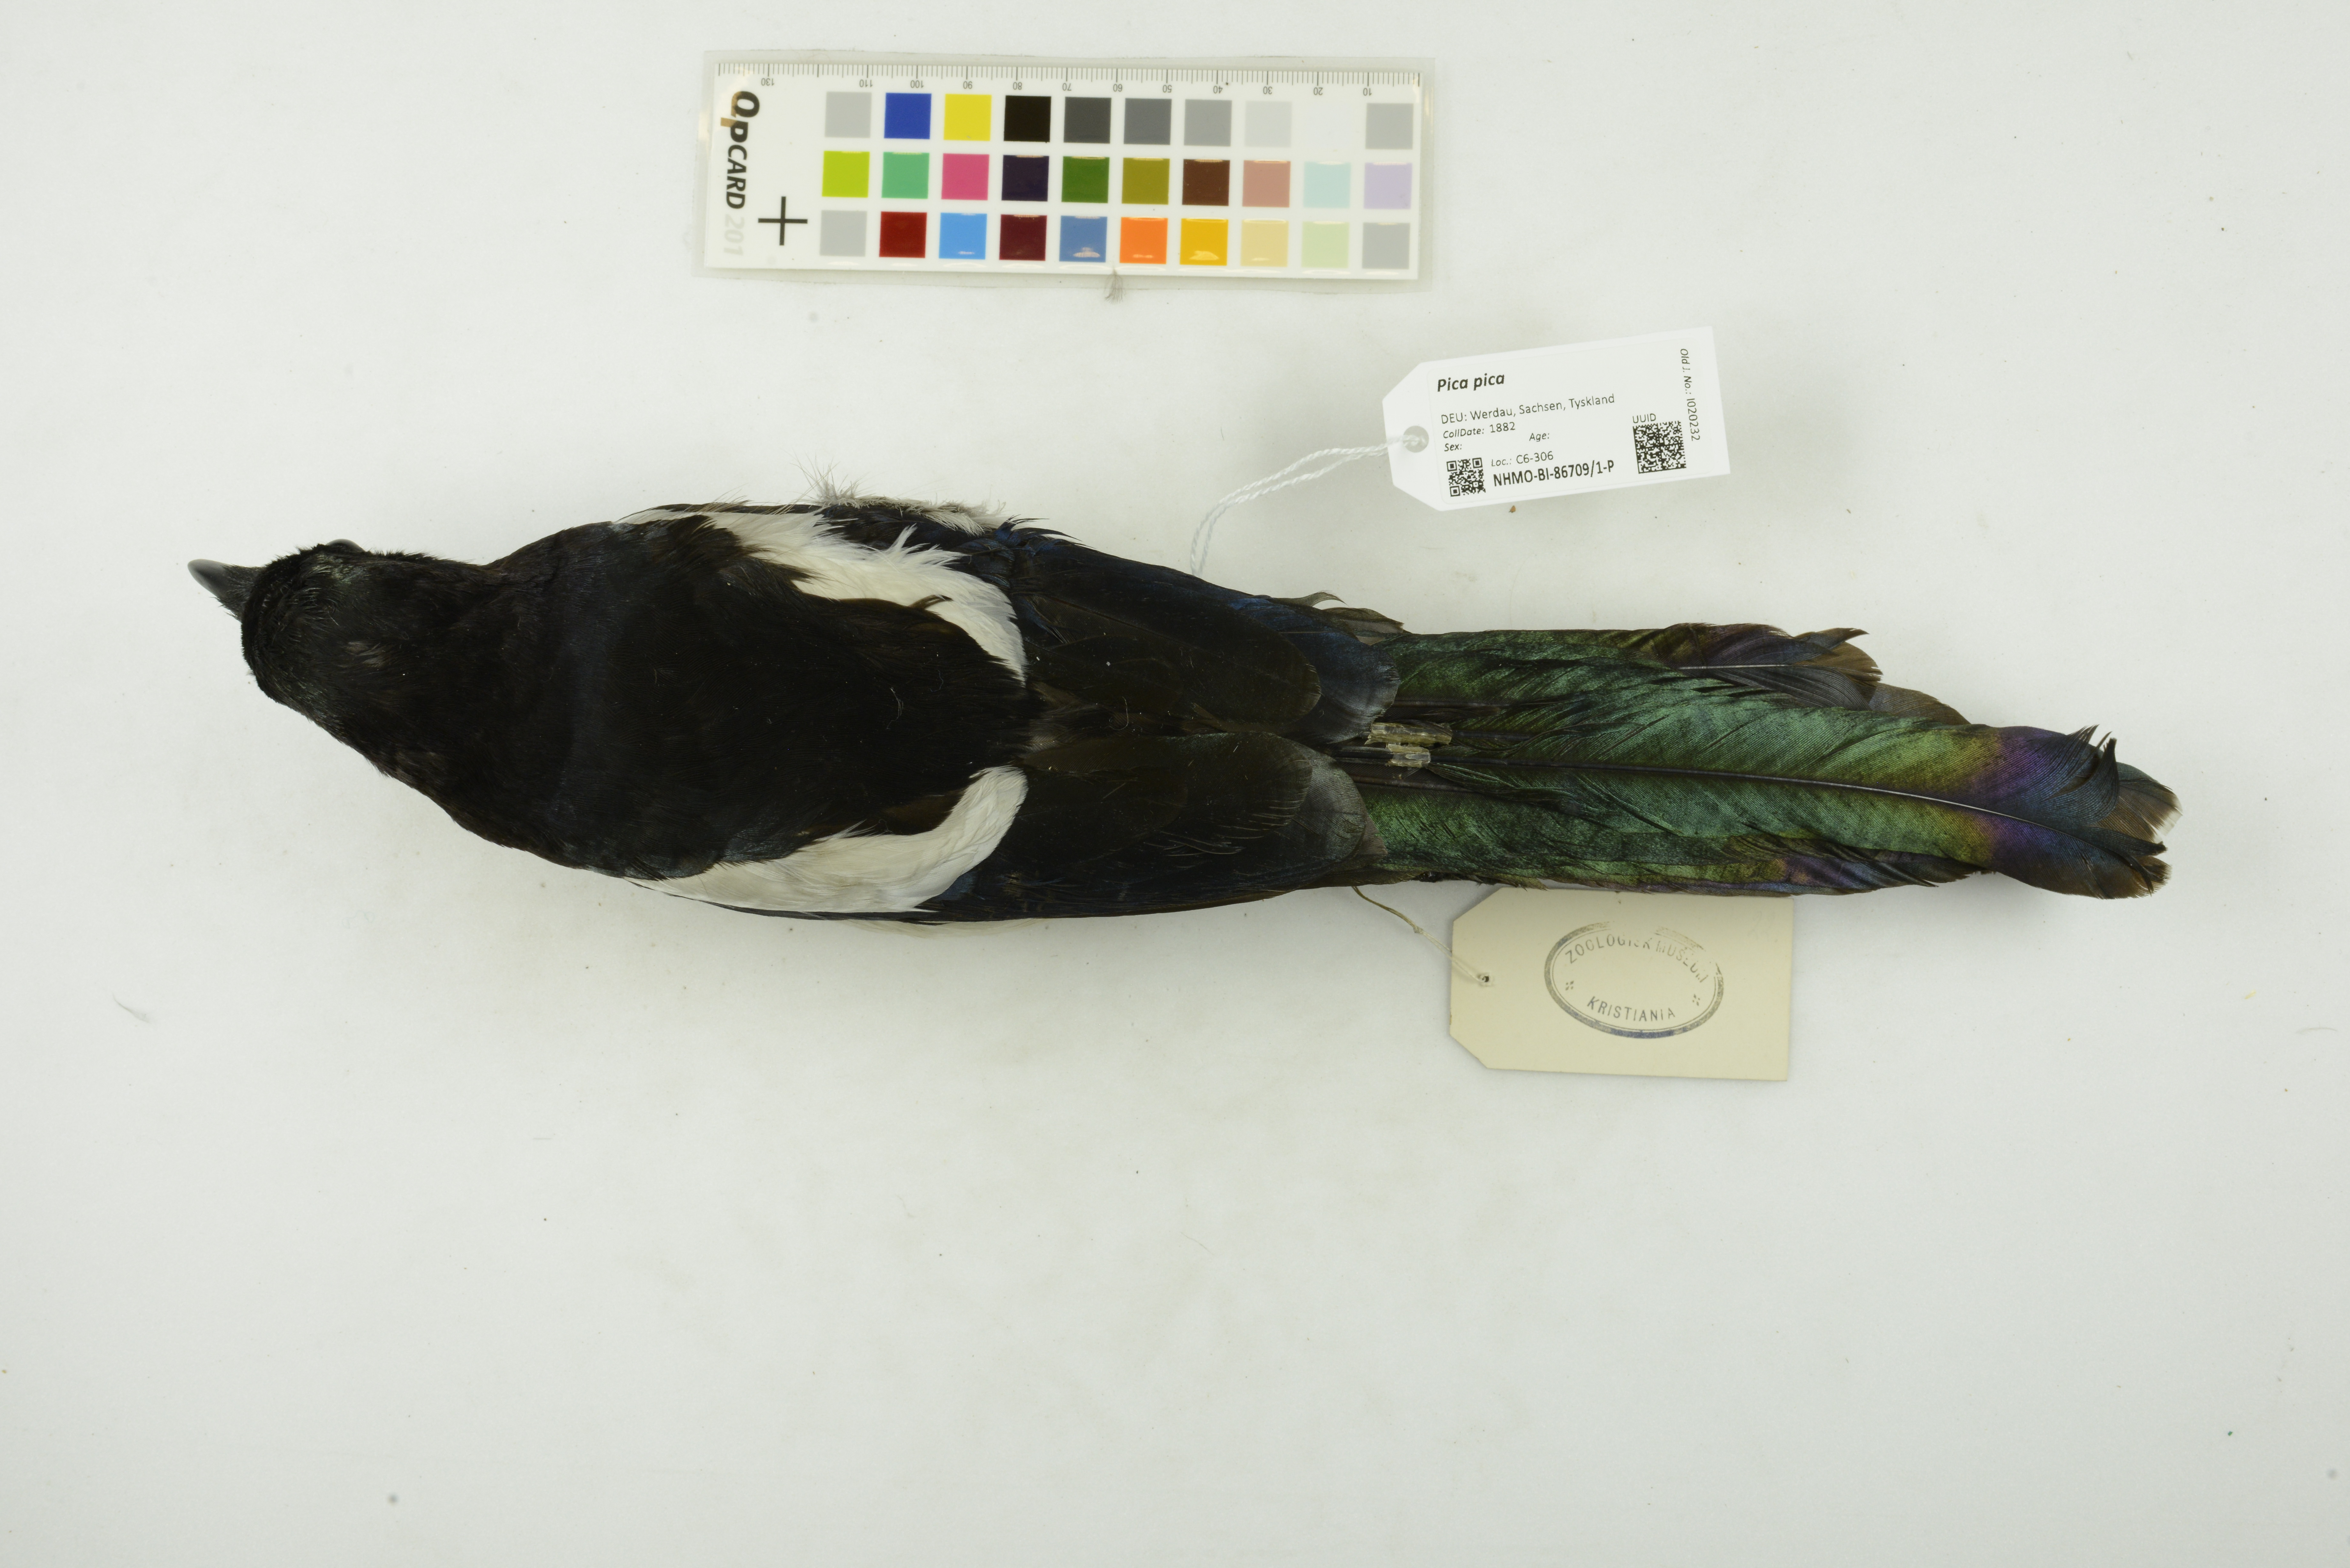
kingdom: Animalia
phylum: Chordata
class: Aves
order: Passeriformes
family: Corvidae
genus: Pica
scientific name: Pica pica
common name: Eurasian magpie
